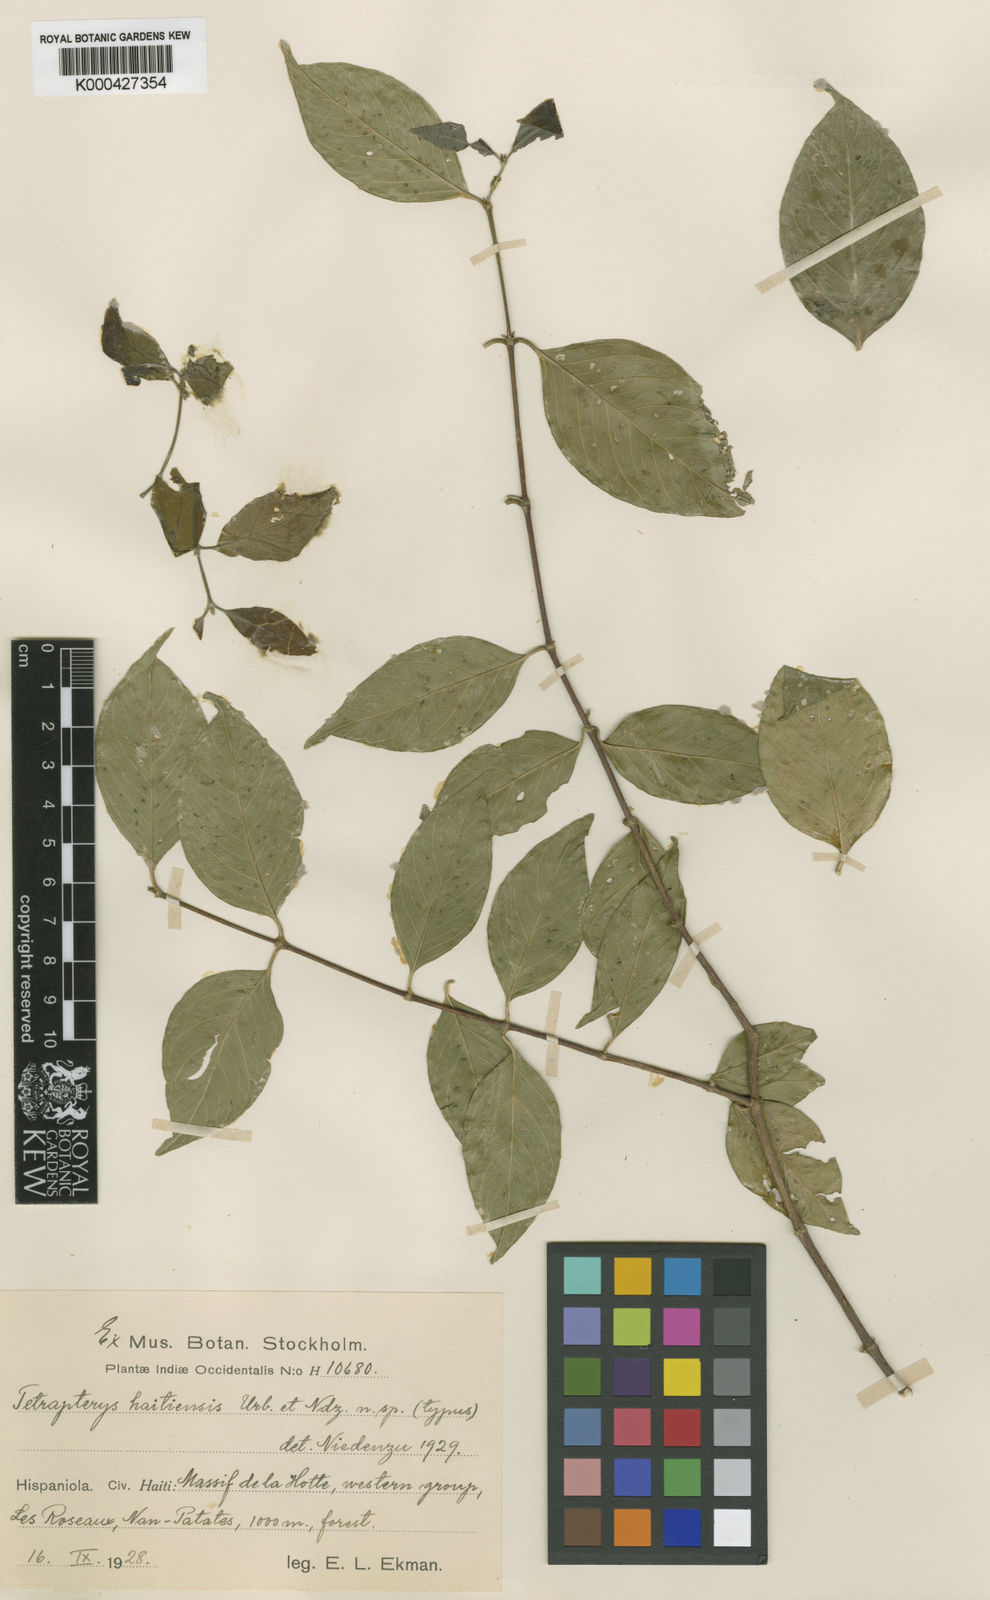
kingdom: Plantae
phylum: Tracheophyta
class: Magnoliopsida
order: Malpighiales
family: Malpighiaceae
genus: Tetrapterys
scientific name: Tetrapterys haitiensis
